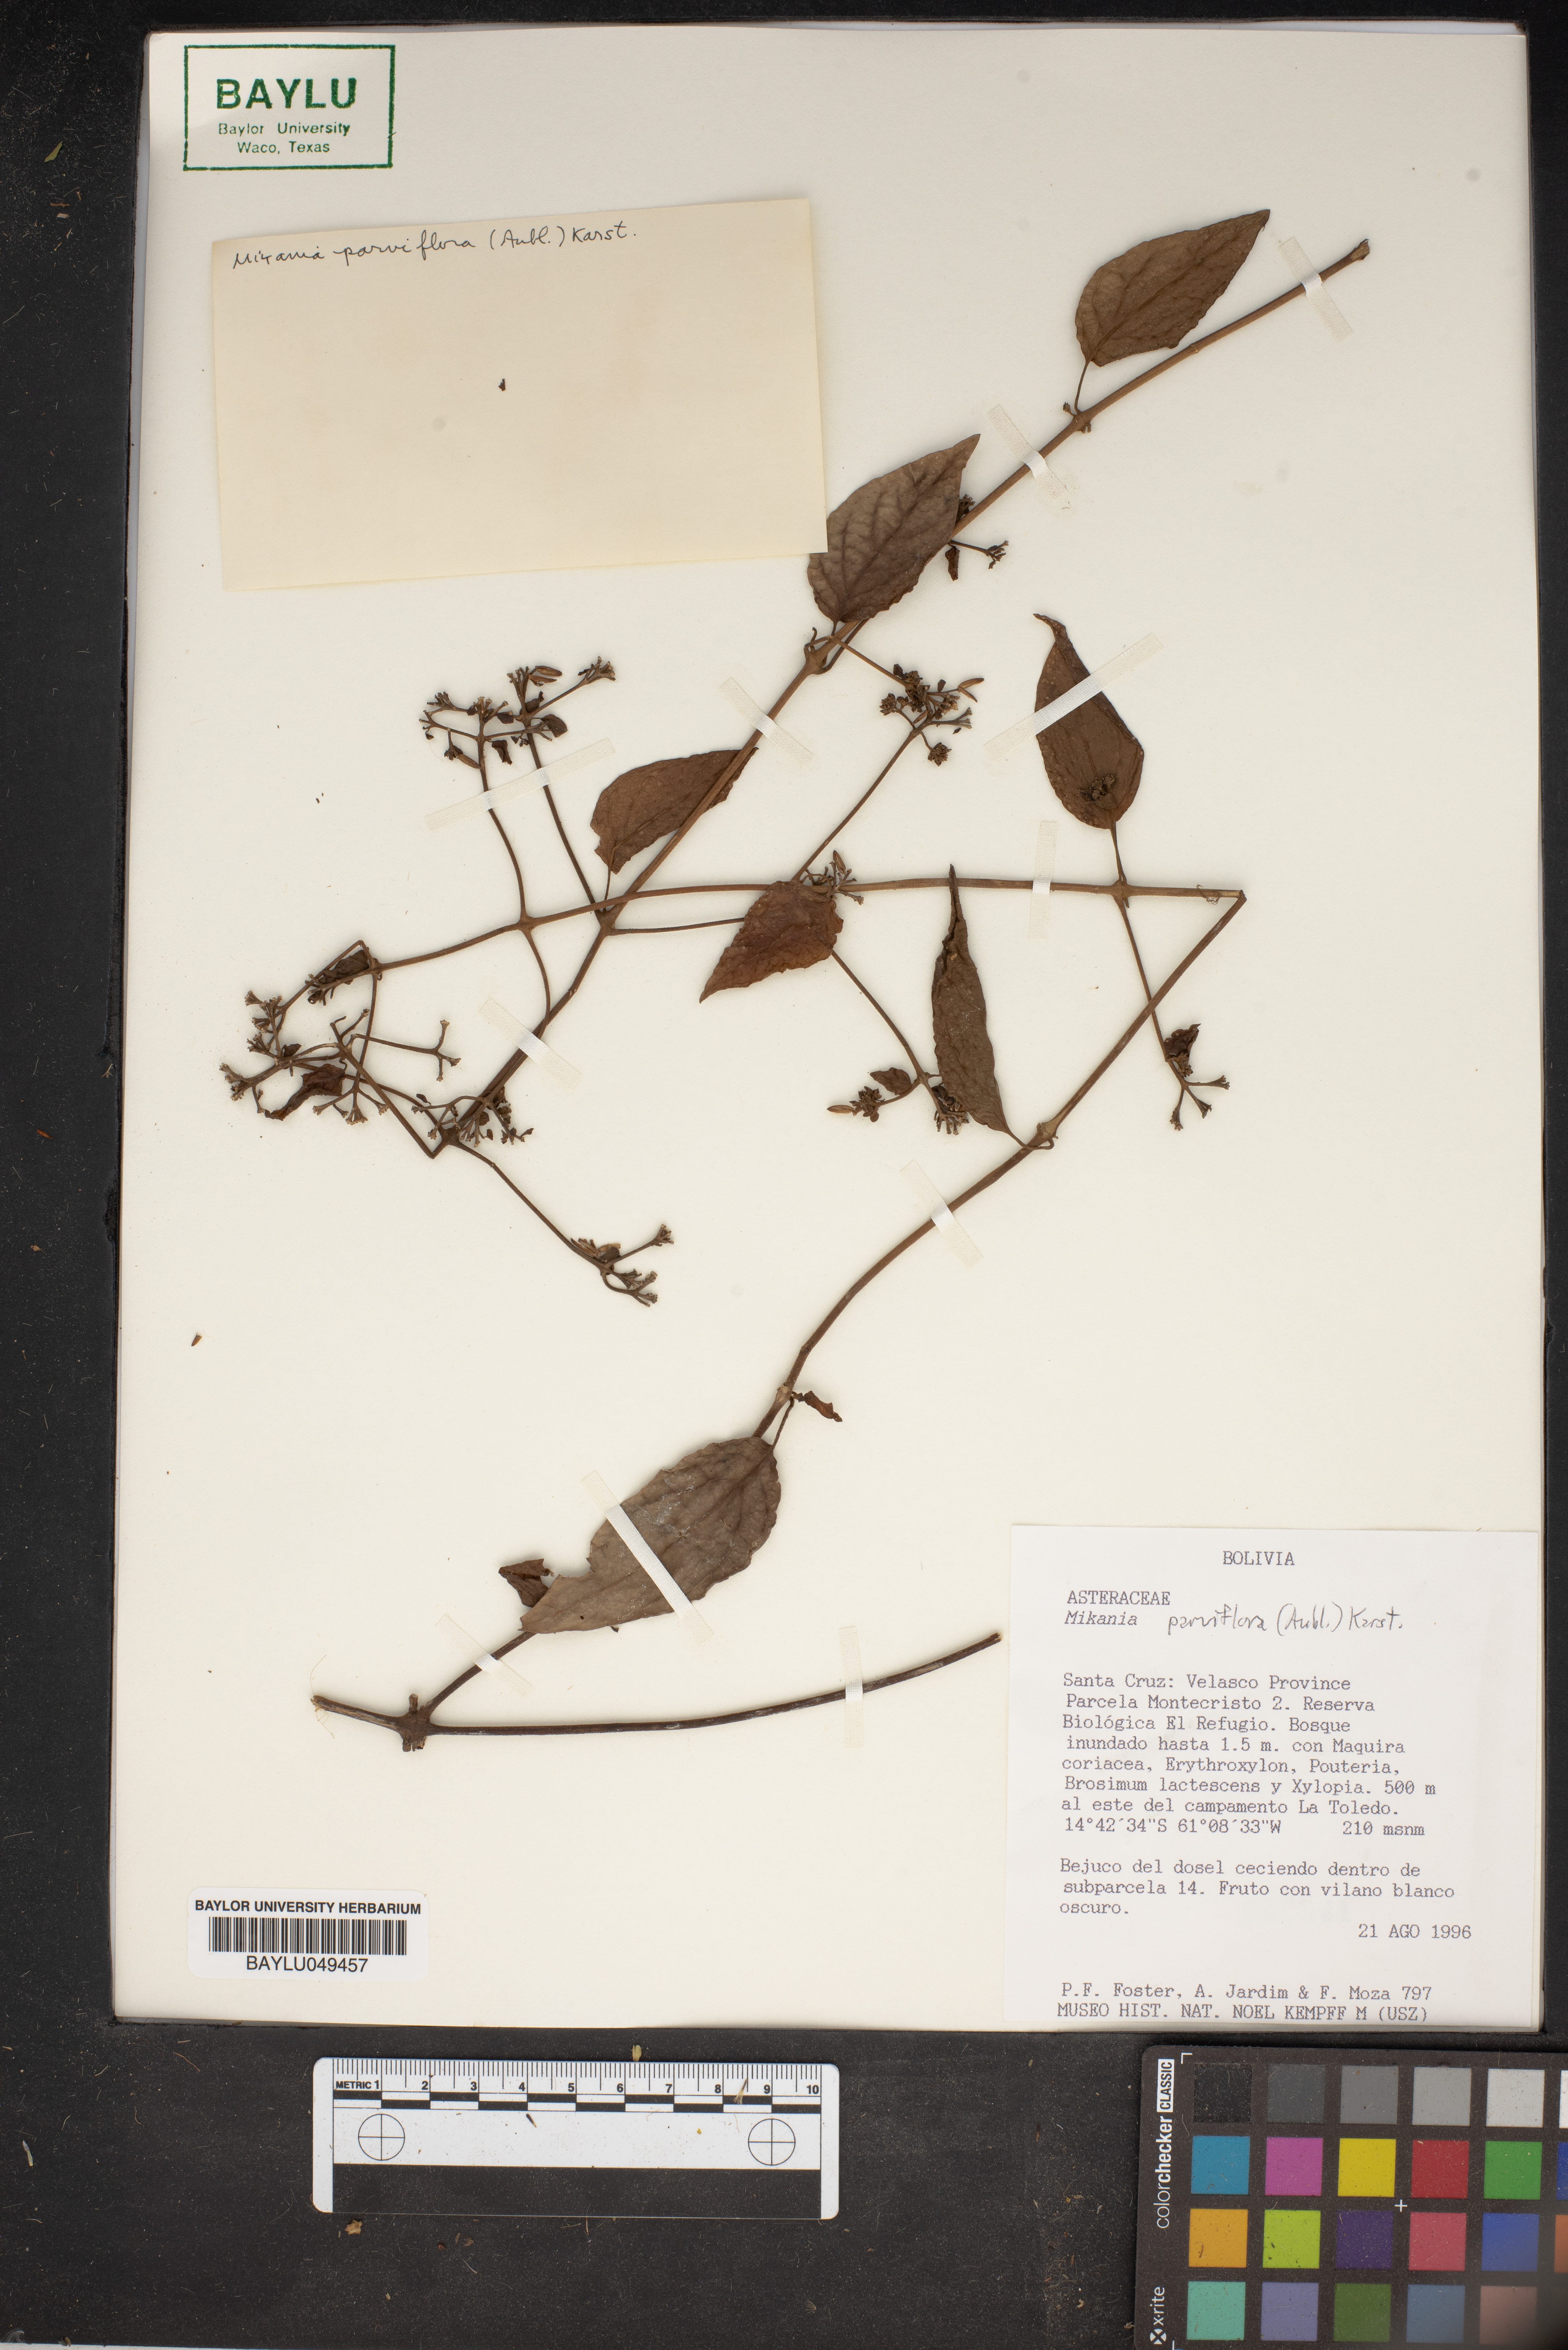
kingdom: Plantae
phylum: Tracheophyta
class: Magnoliopsida
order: Asterales
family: Asteraceae
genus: Mikania
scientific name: Mikania parviflora
